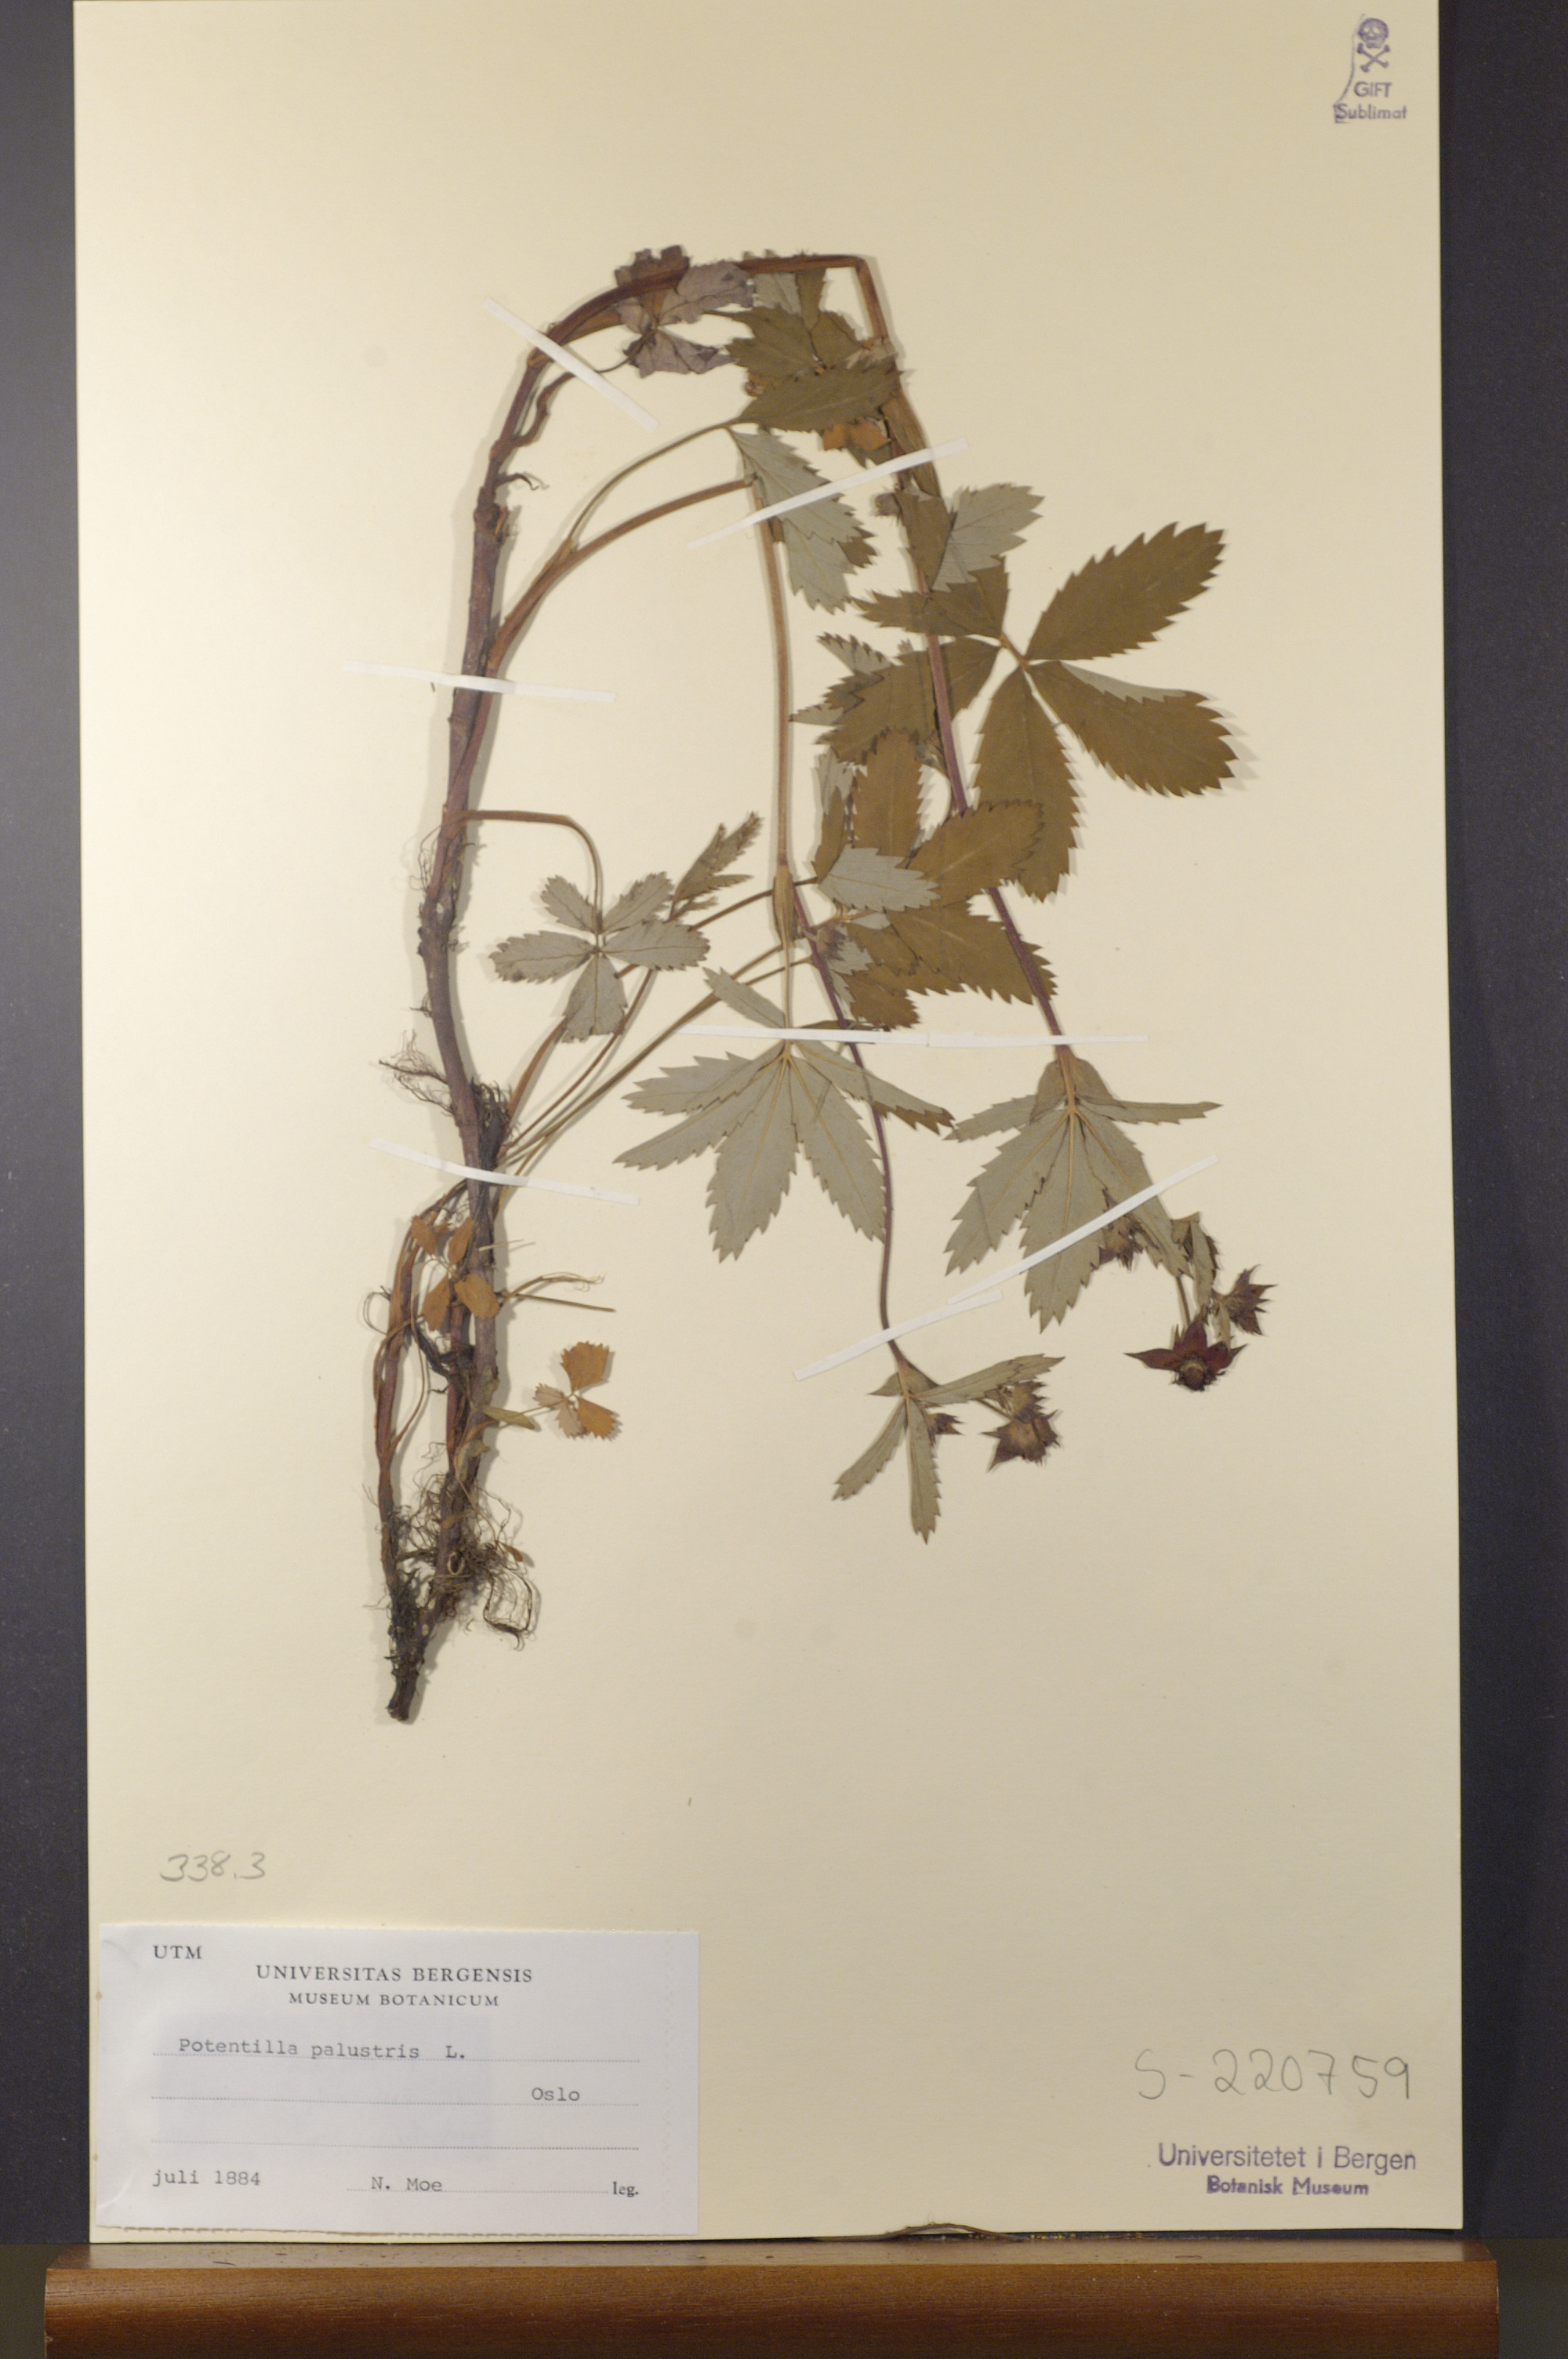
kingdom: Plantae
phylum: Tracheophyta
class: Magnoliopsida
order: Rosales
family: Rosaceae
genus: Comarum
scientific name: Comarum palustre
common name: Marsh cinquefoil
